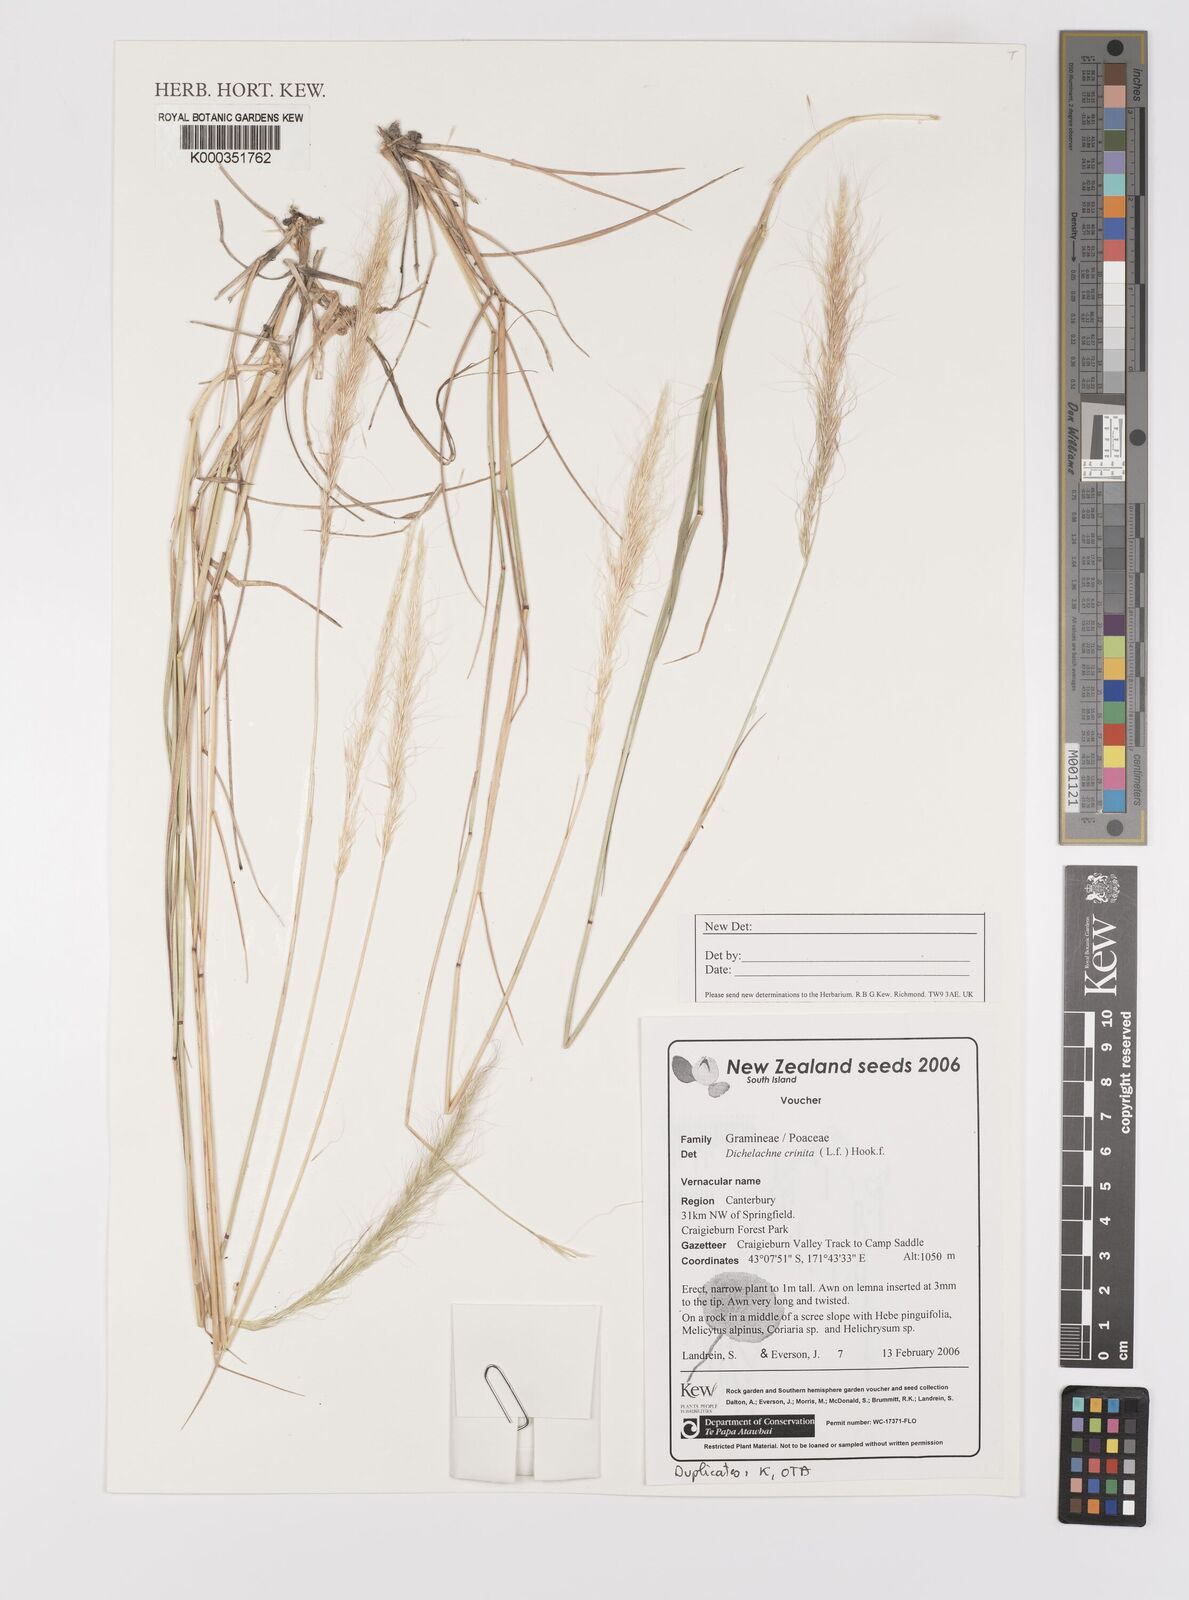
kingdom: Plantae
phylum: Tracheophyta
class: Liliopsida
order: Poales
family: Poaceae
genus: Dichelachne
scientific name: Dichelachne crinita
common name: Clovenfoot plumegrass
